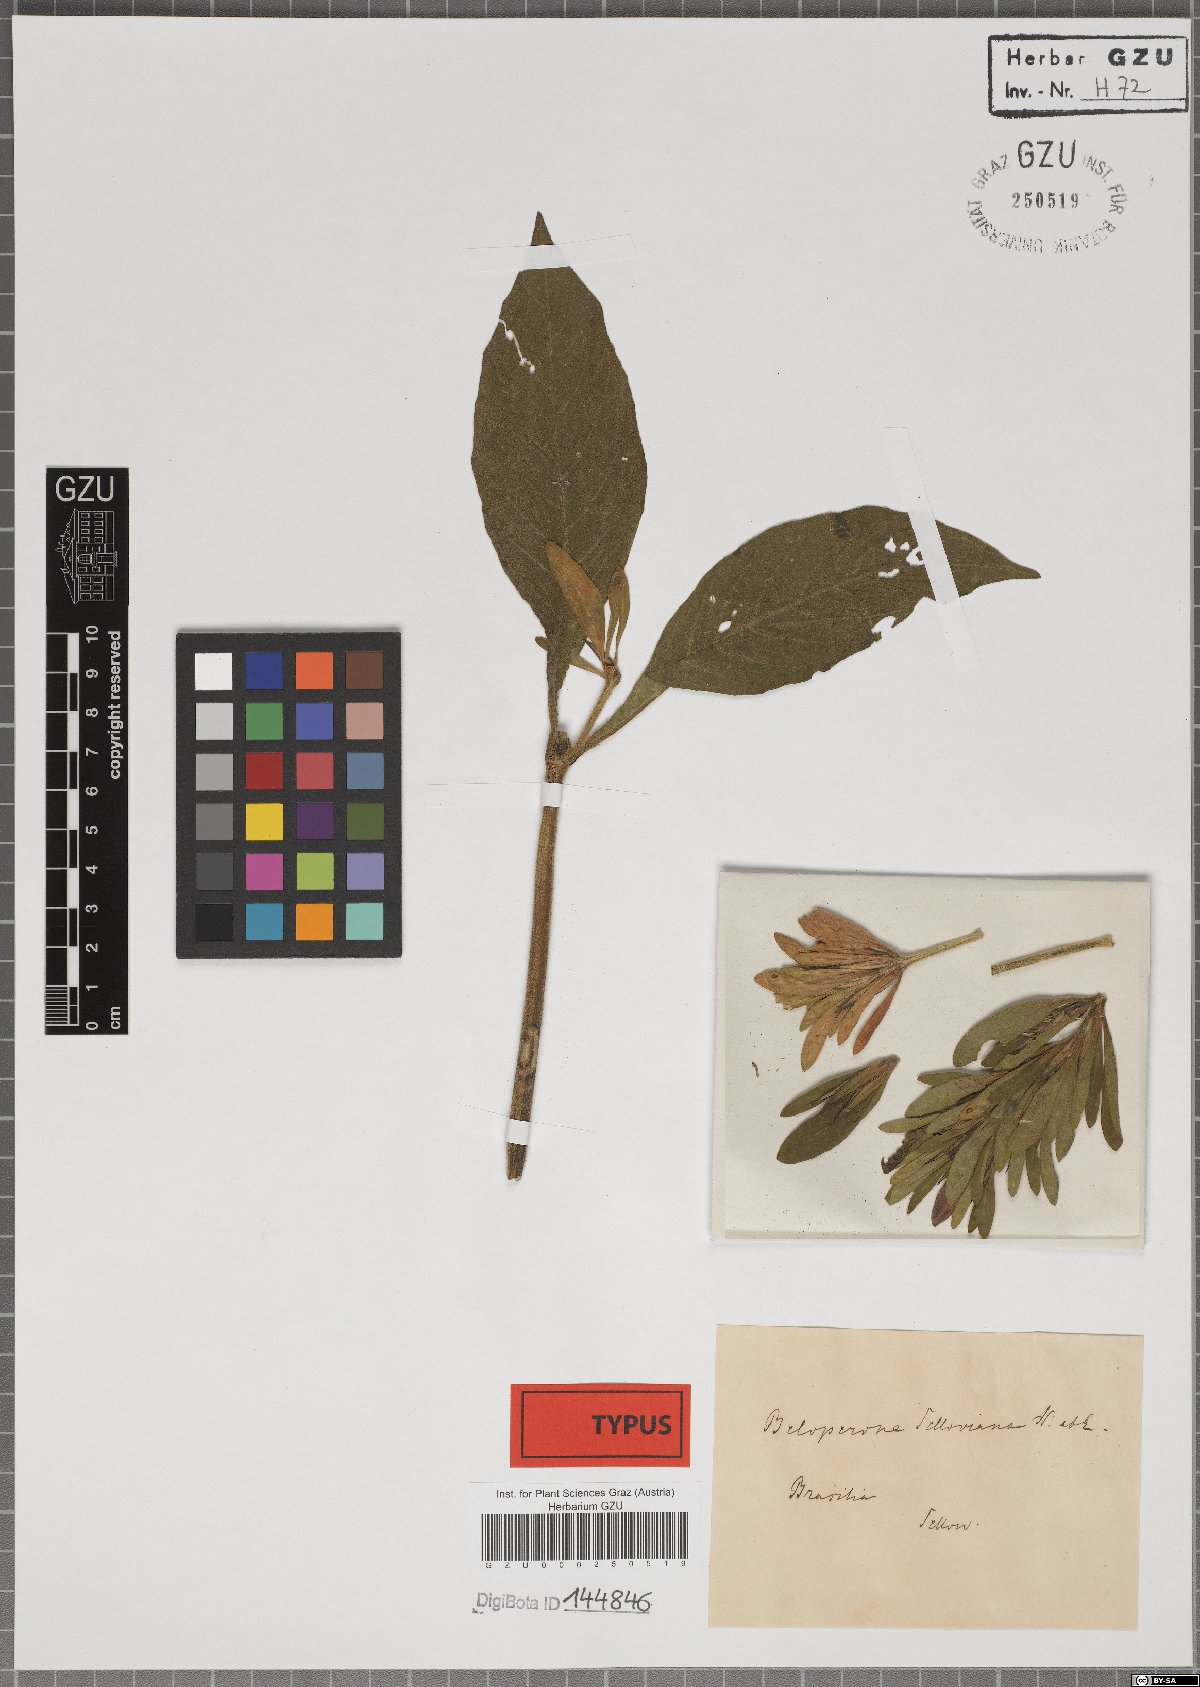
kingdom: Plantae
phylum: Tracheophyta
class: Magnoliopsida
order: Lamiales
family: Acanthaceae
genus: Justicia
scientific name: Justicia Beloperone selloviana
